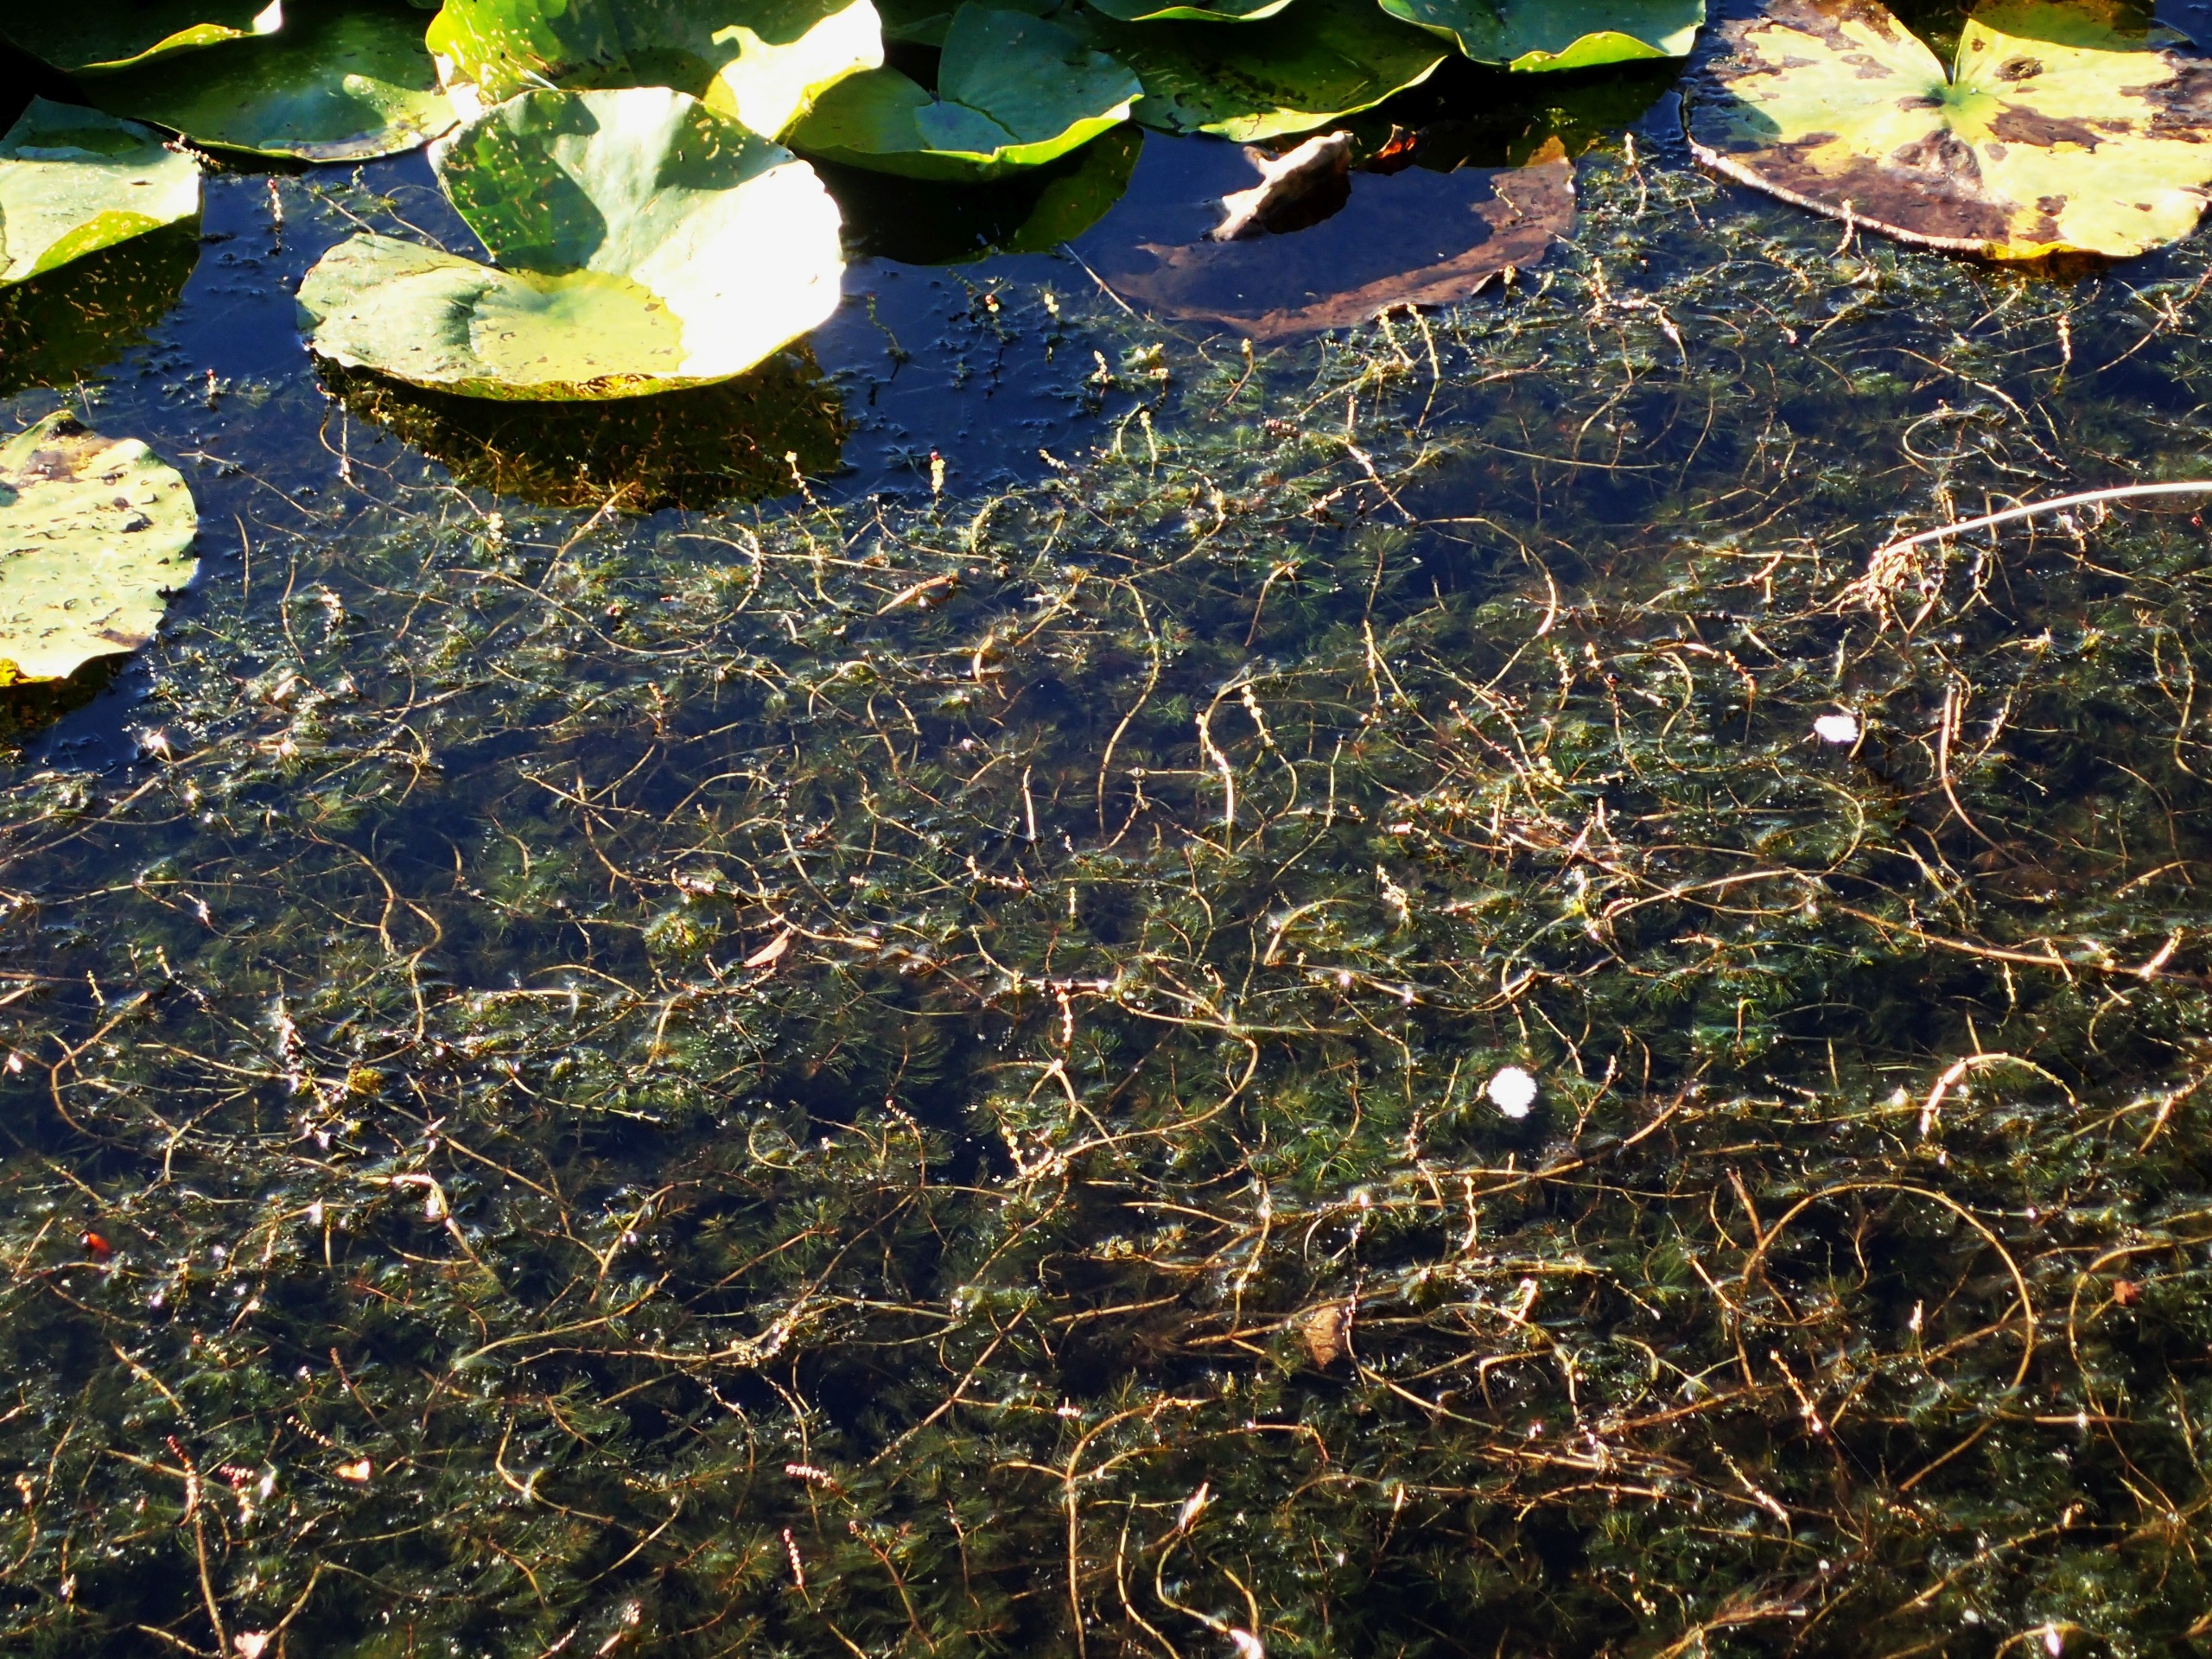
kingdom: Plantae
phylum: Tracheophyta
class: Magnoliopsida
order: Saxifragales
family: Haloragaceae
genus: Myriophyllum
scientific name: Myriophyllum spicatum
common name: Aks-tusindblad
